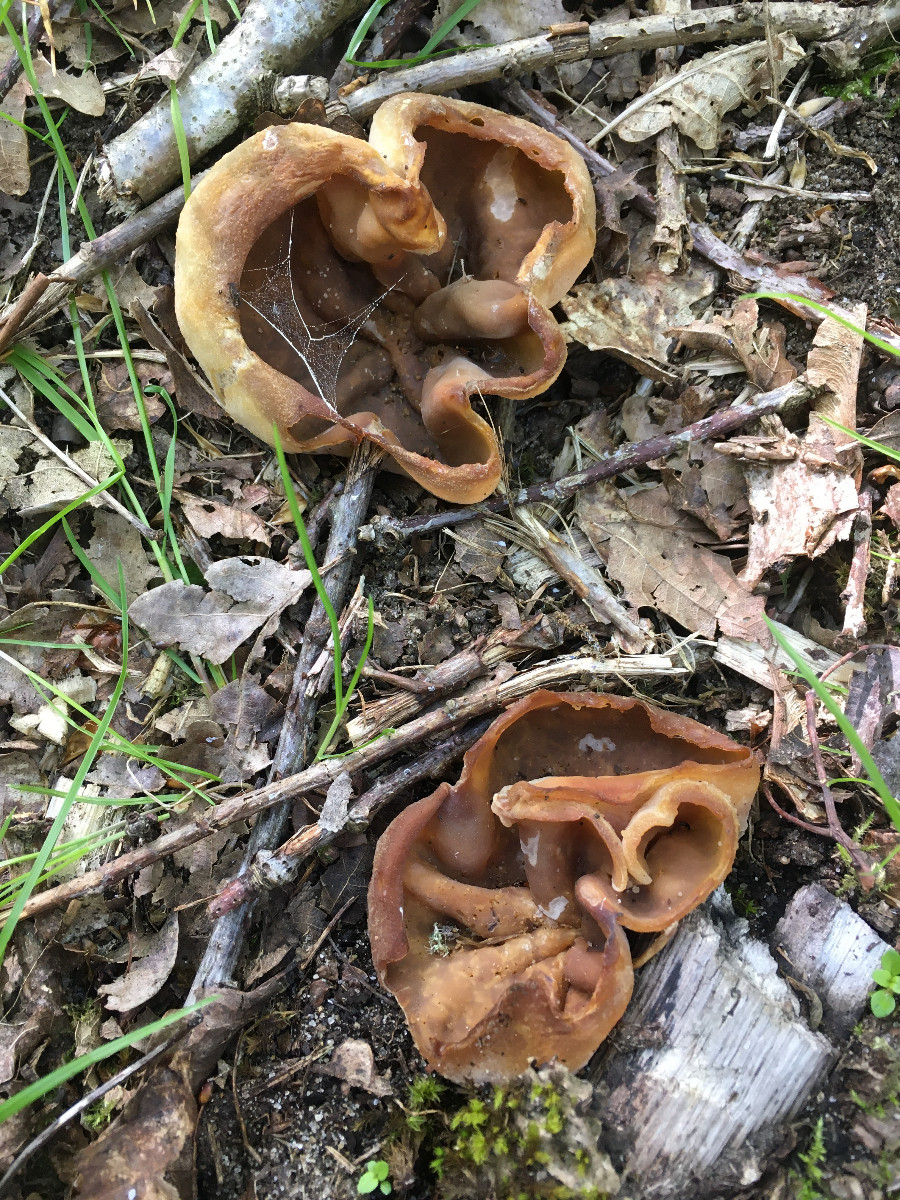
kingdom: Fungi
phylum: Ascomycota
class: Pezizomycetes
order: Pezizales
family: Pezizaceae
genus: Peziza
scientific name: Peziza
